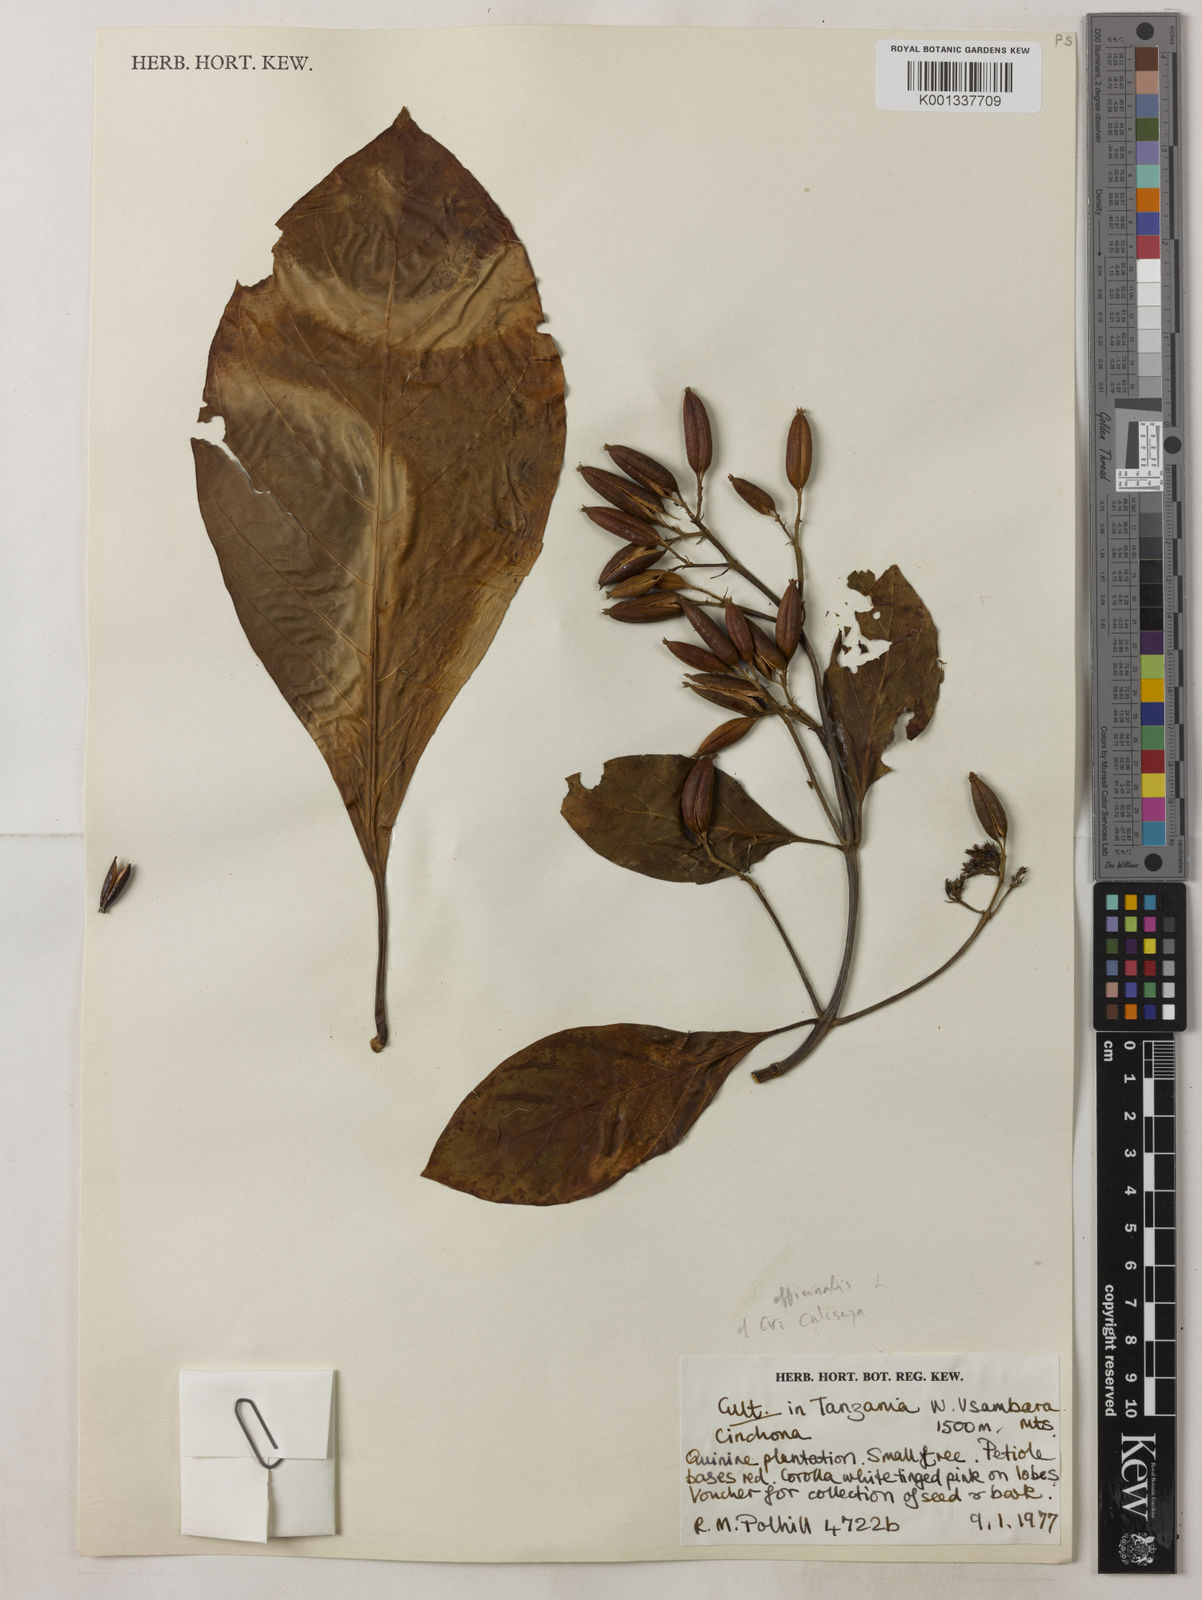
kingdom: Plantae
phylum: Tracheophyta
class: Magnoliopsida
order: Gentianales
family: Rubiaceae
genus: Cinchona
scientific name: Cinchona calisaya
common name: Ledgerbark
